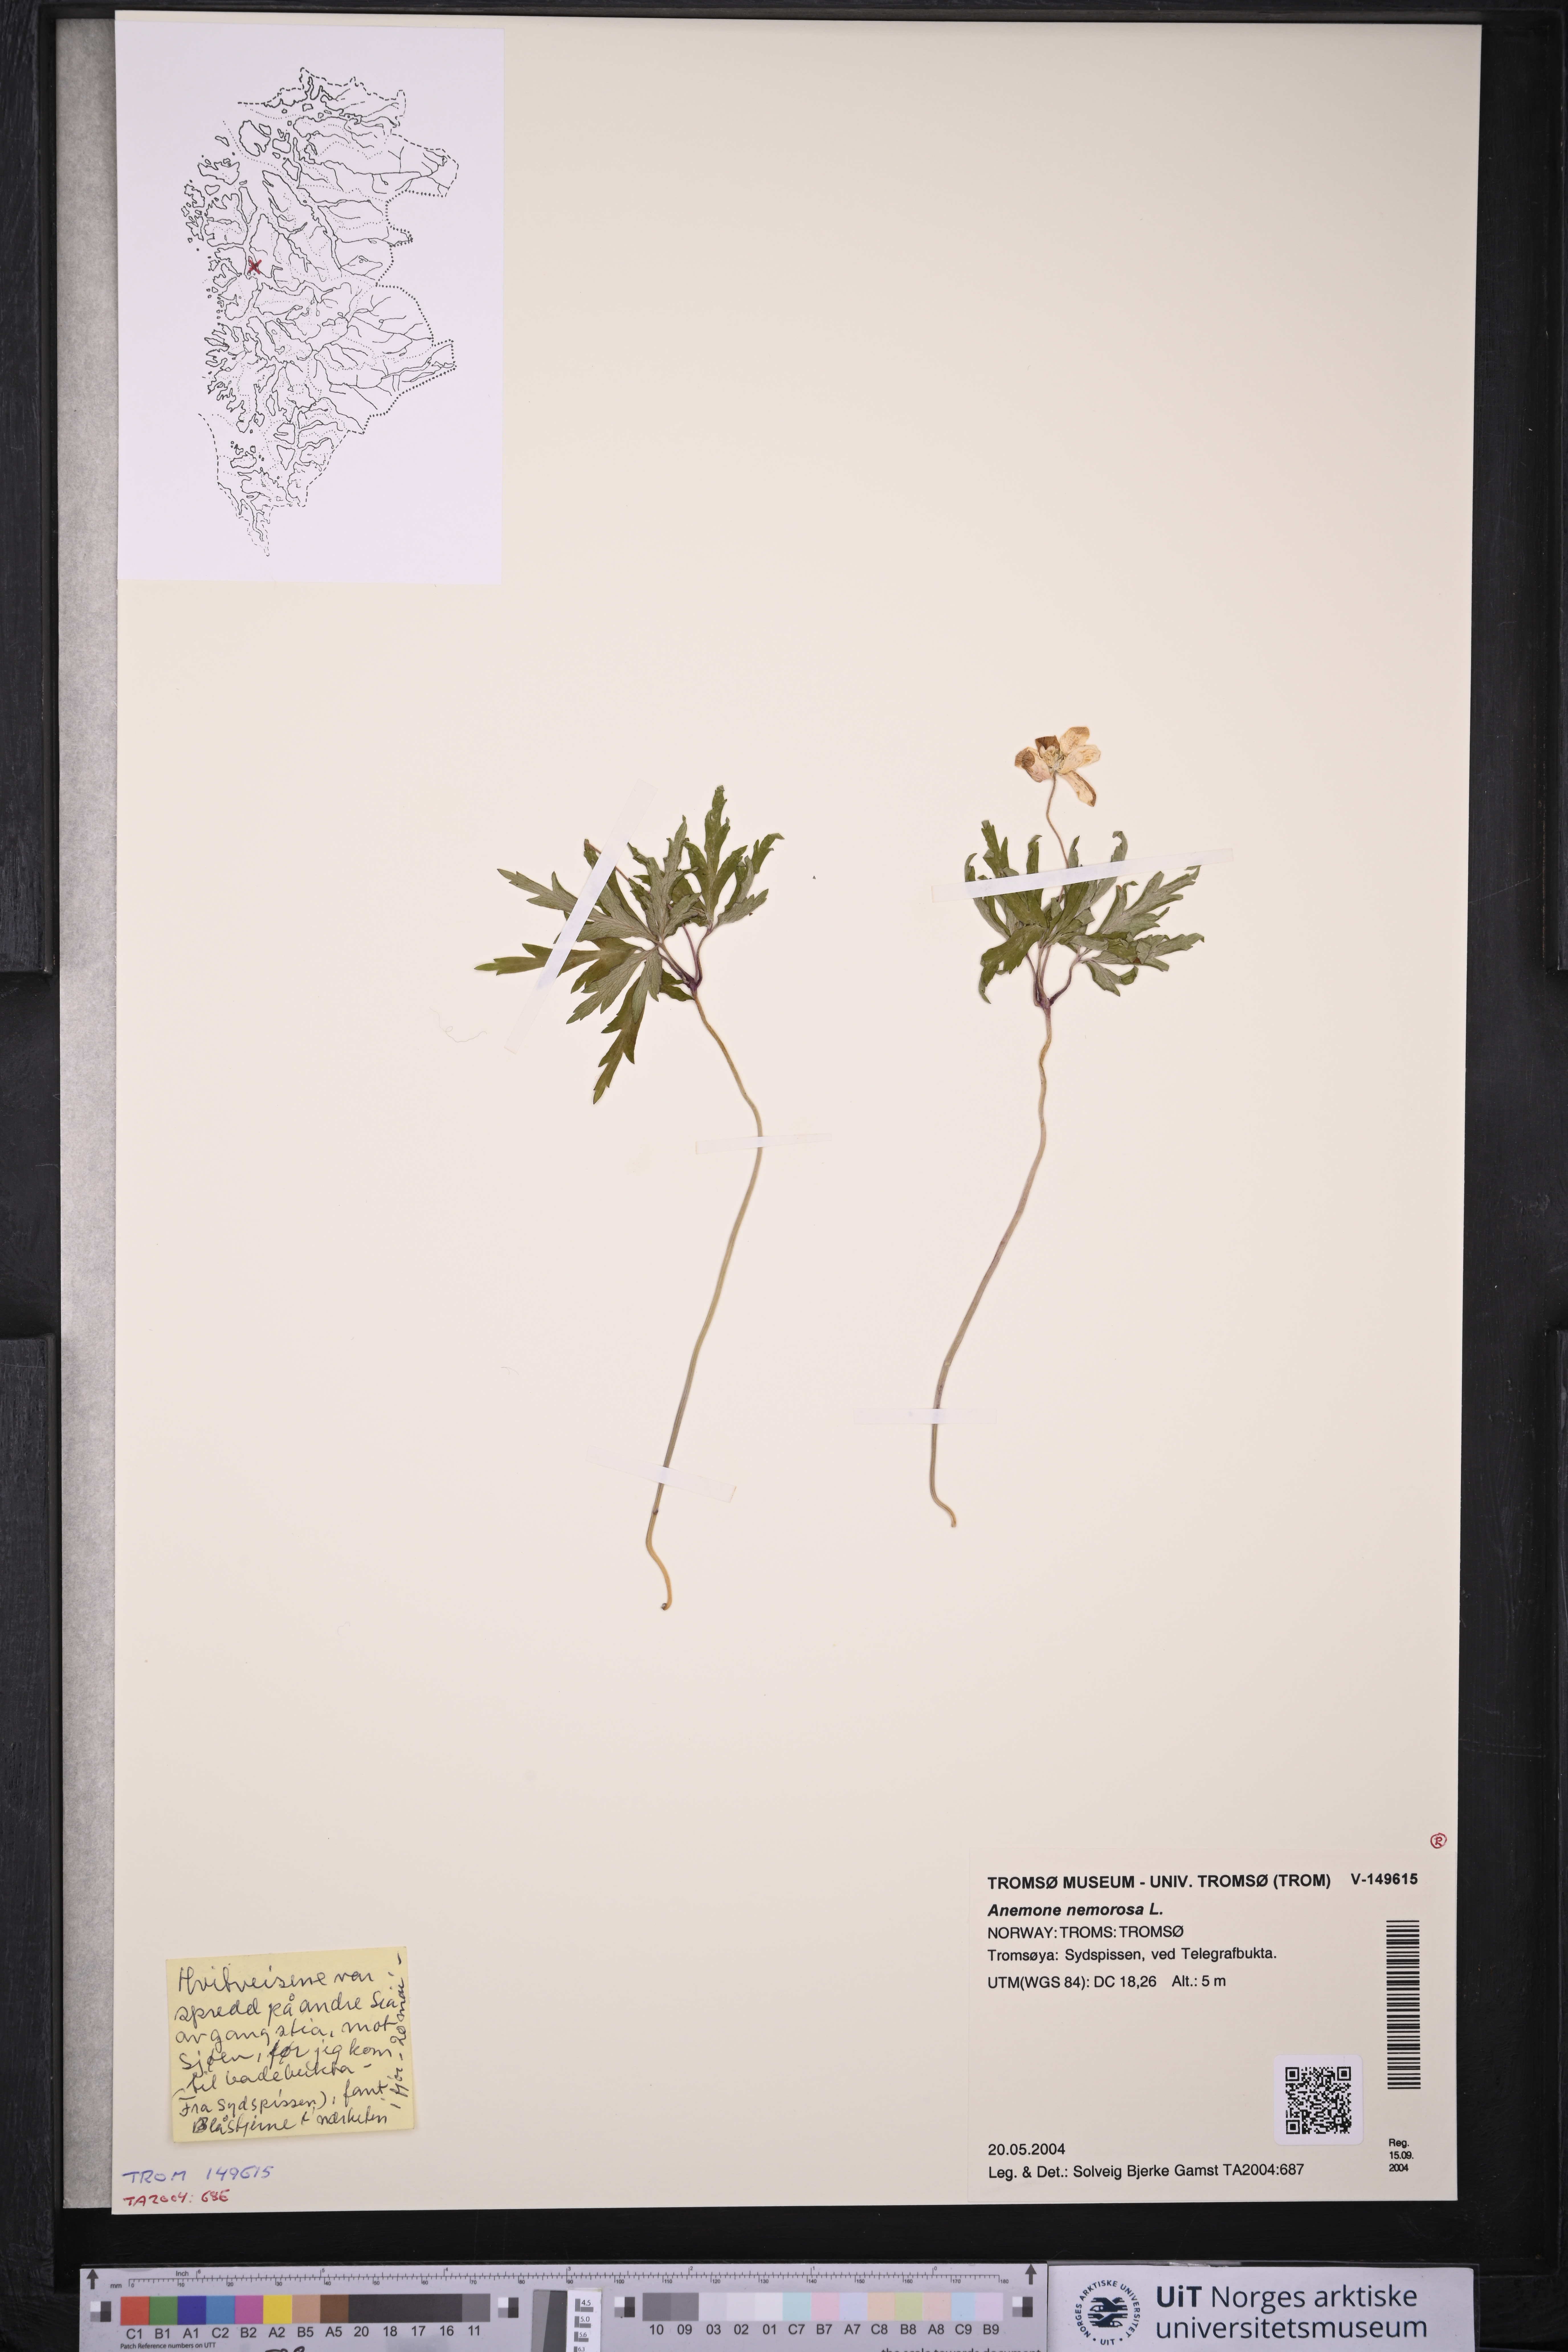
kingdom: Plantae
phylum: Tracheophyta
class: Magnoliopsida
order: Ranunculales
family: Ranunculaceae
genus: Anemone
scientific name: Anemone nemorosa
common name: Wood anemone
